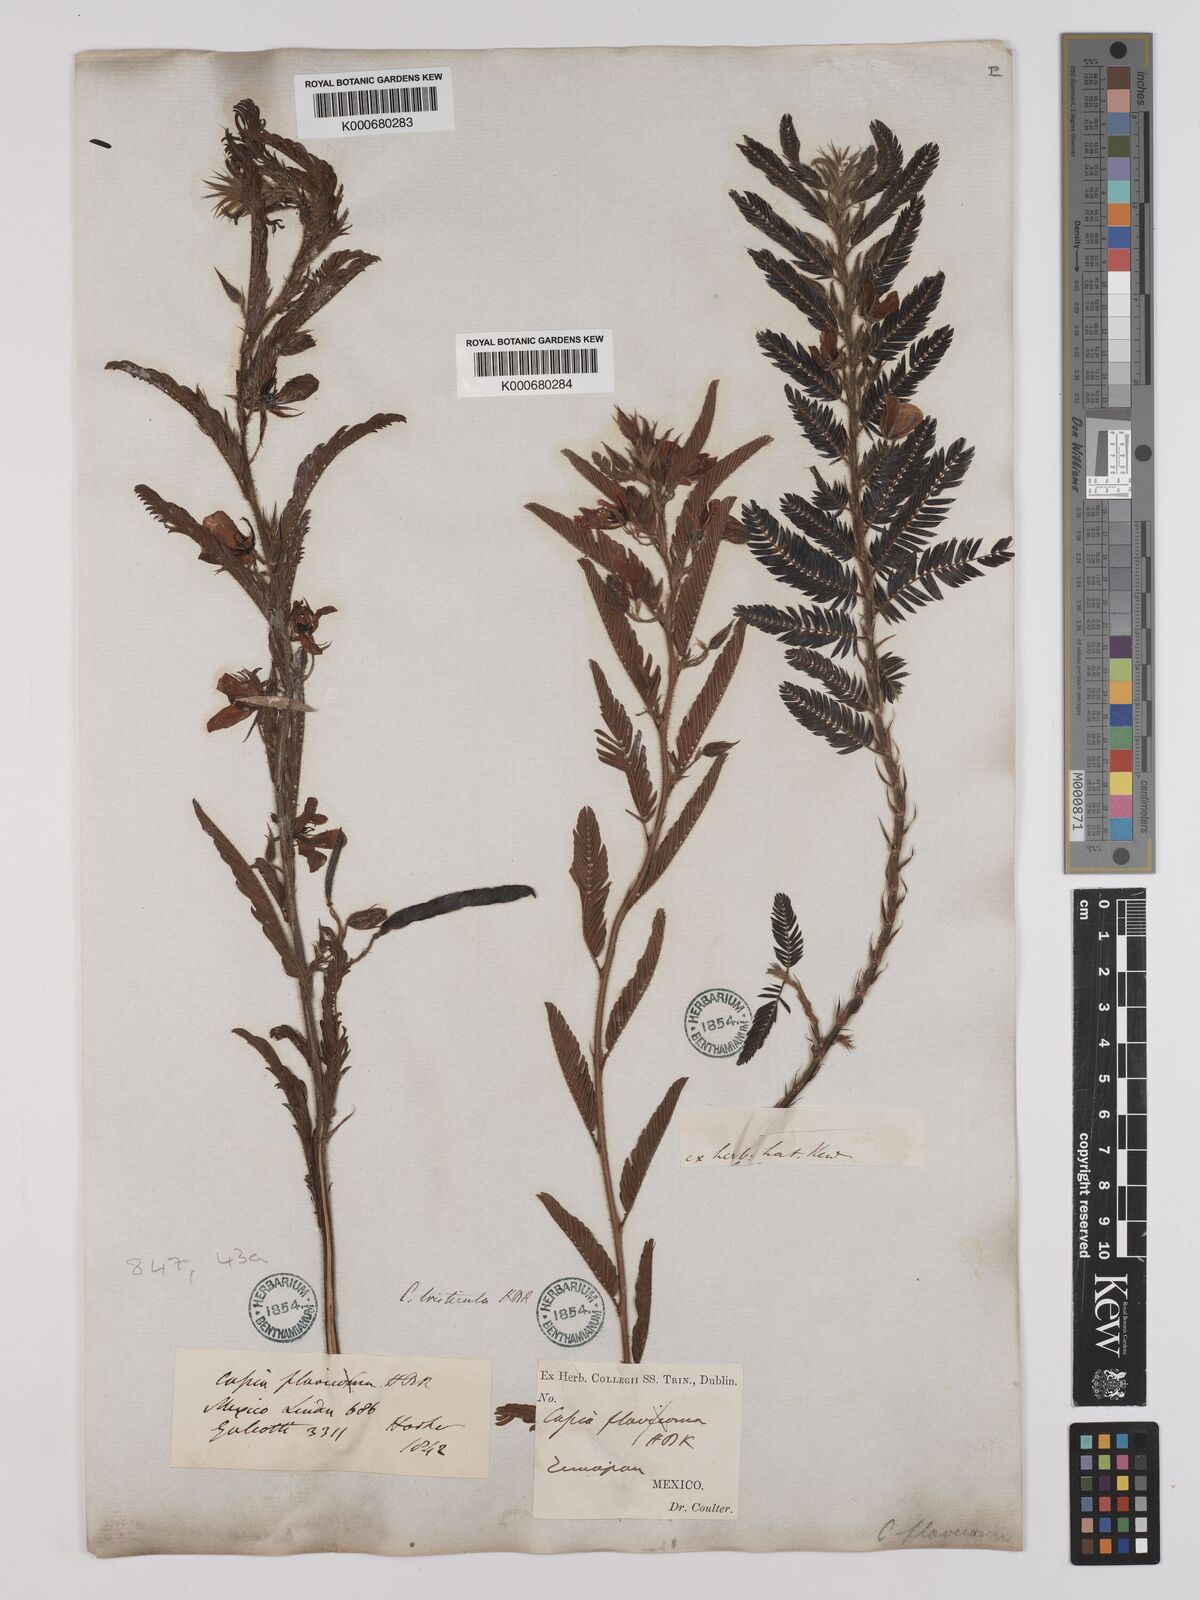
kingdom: Plantae
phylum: Tracheophyta
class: Magnoliopsida
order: Fabales
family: Fabaceae
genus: Chamaecrista
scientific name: Chamaecrista glandulosa
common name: Wild peas
